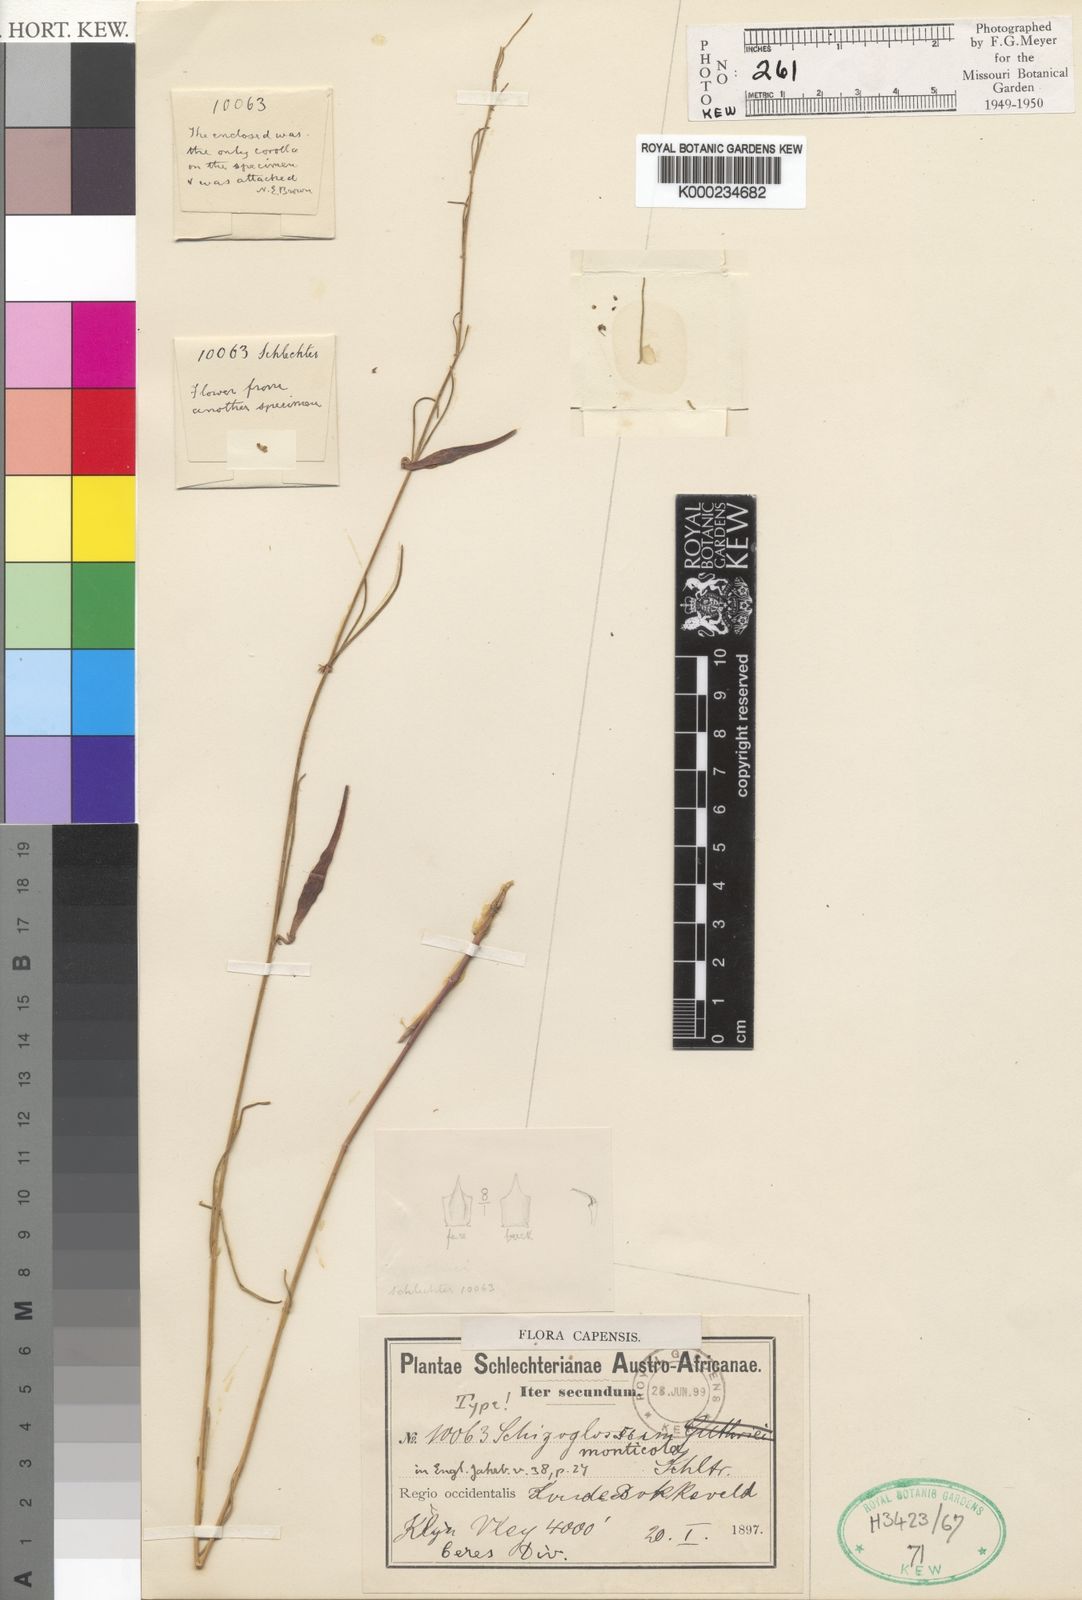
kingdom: Plantae
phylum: Tracheophyta
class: Magnoliopsida
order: Gentianales
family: Apocynaceae
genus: Aspidoglossum
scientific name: Aspidoglossum gracile
